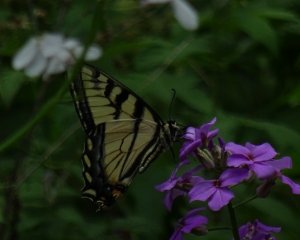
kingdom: Animalia
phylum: Arthropoda
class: Insecta
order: Lepidoptera
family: Papilionidae
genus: Pterourus
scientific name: Pterourus glaucus
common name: Eastern Tiger Swallowtail
